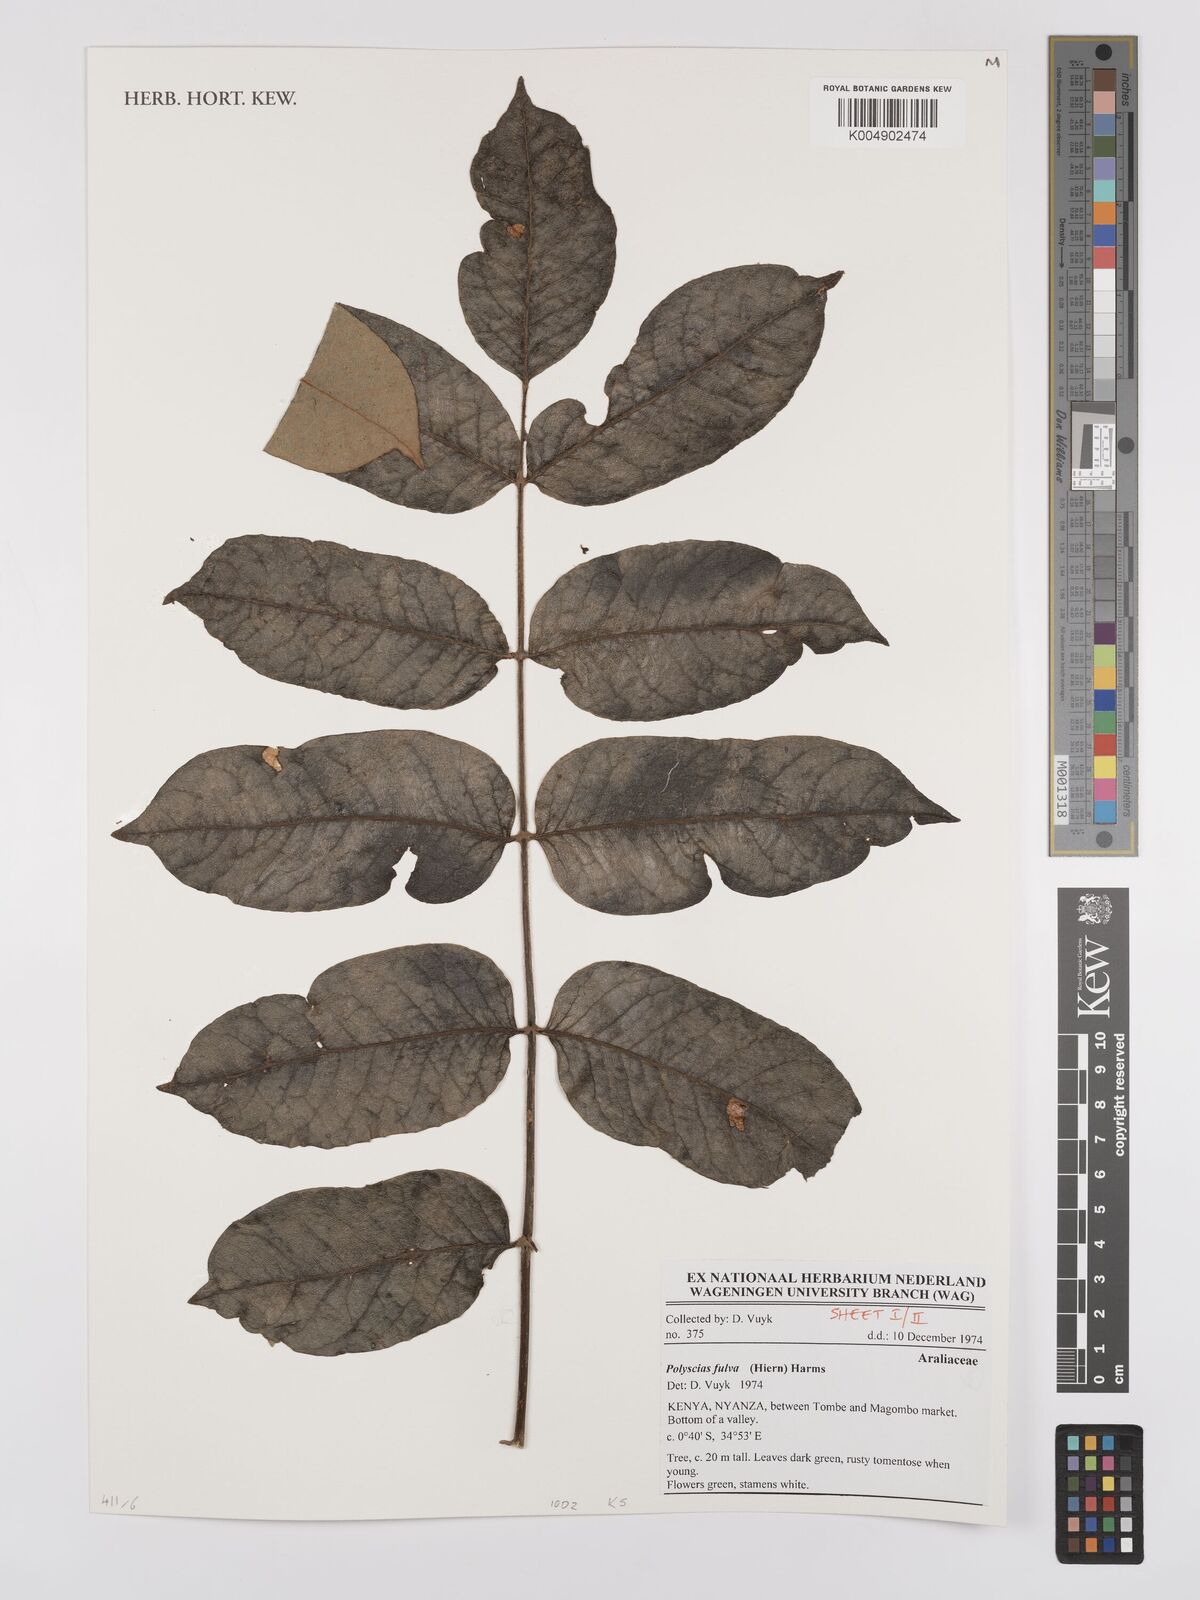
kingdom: Plantae
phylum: Tracheophyta
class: Magnoliopsida
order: Apiales
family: Araliaceae
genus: Polyscias
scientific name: Polyscias fulva
